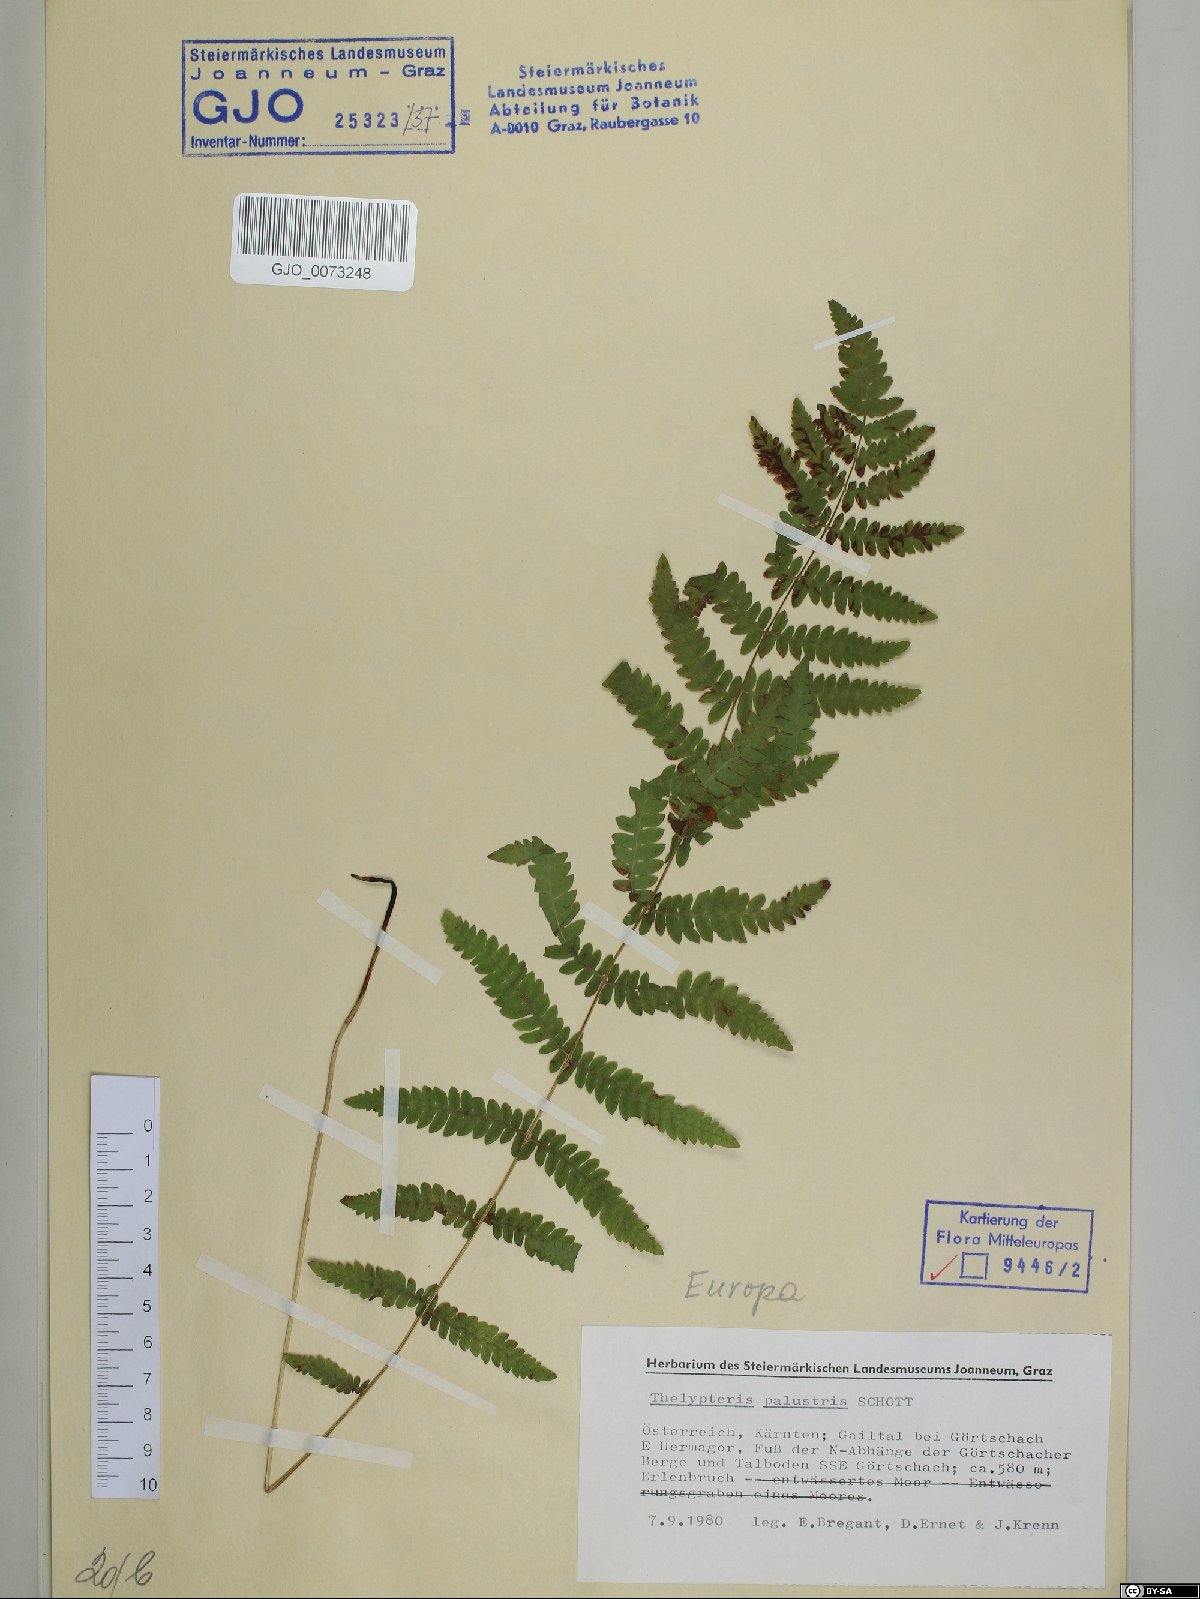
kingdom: Plantae
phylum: Tracheophyta
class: Polypodiopsida
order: Polypodiales
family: Thelypteridaceae
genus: Thelypteris
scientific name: Thelypteris palustris
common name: Marsh fern
